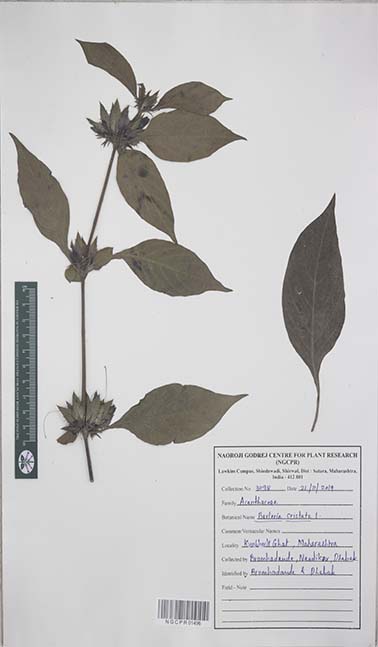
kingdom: Plantae
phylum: Tracheophyta
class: Magnoliopsida
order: Lamiales
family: Acanthaceae
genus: Barleria
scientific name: Barleria cristata
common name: Crested philippine violet
